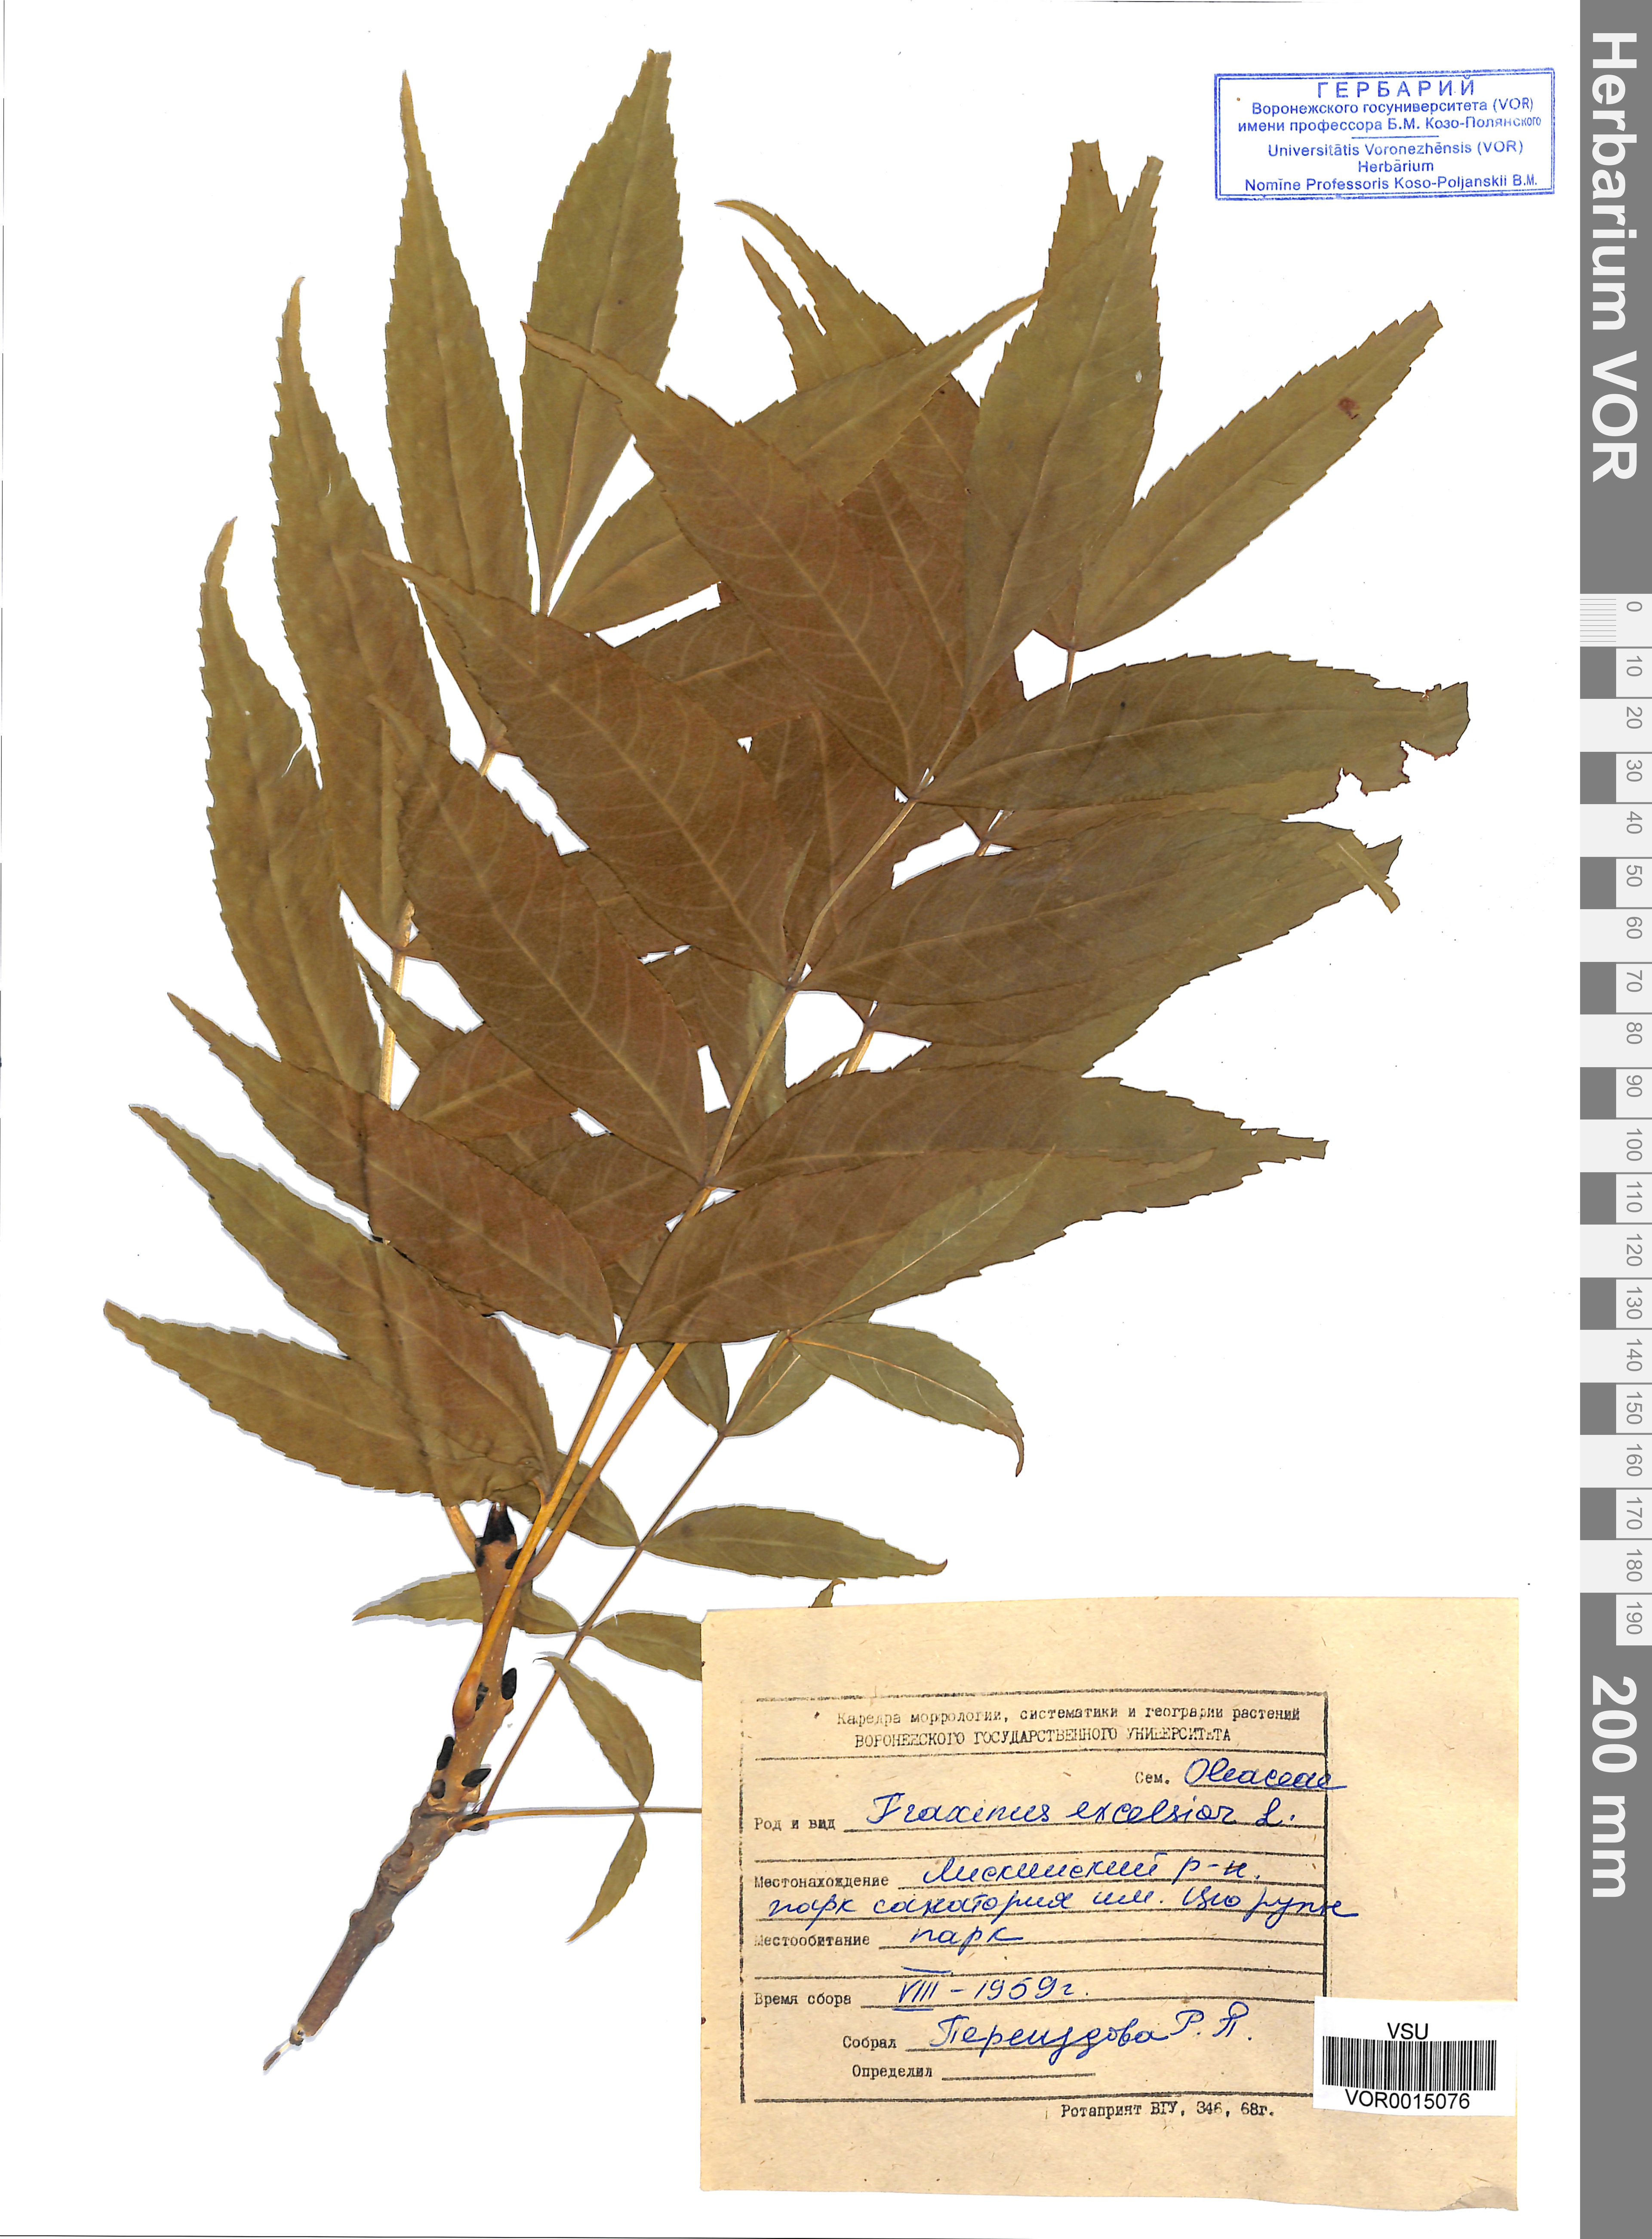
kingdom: Plantae
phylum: Tracheophyta
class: Magnoliopsida
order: Lamiales
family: Oleaceae
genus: Fraxinus
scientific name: Fraxinus excelsior
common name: European ash
